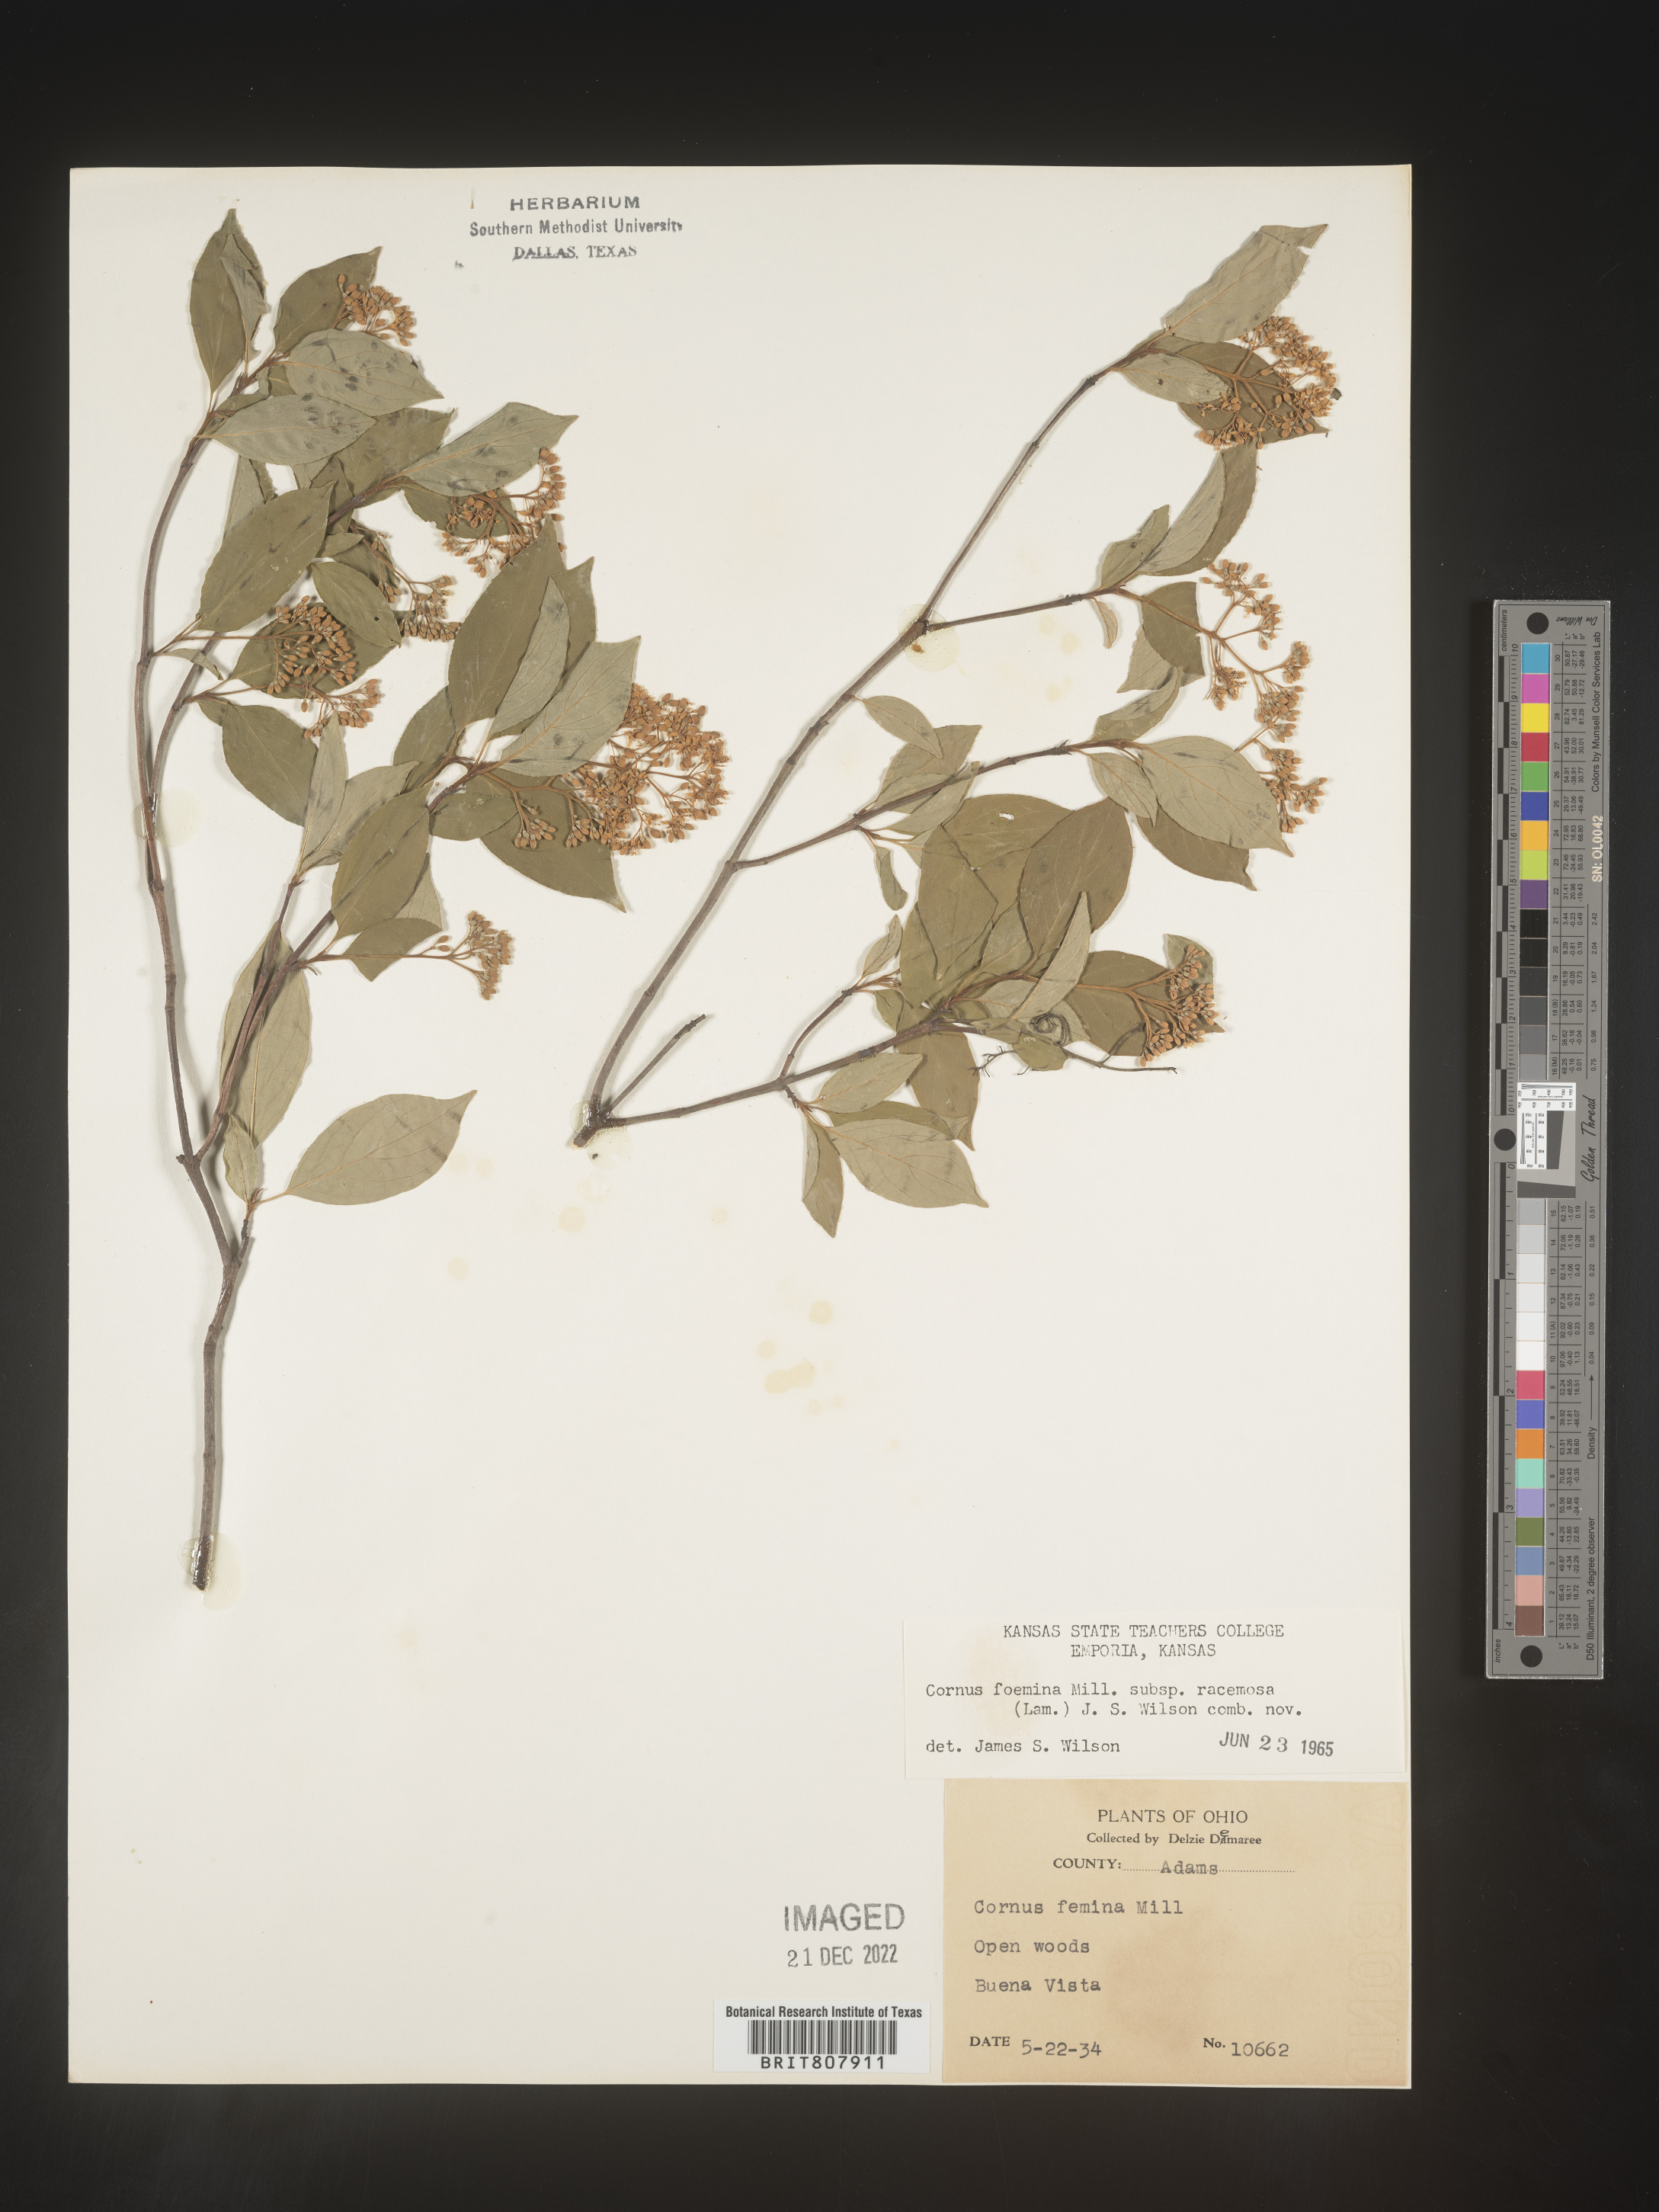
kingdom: Plantae
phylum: Tracheophyta
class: Magnoliopsida
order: Cornales
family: Cornaceae
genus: Cornus
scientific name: Cornus racemosa
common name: Panicled dogwood
